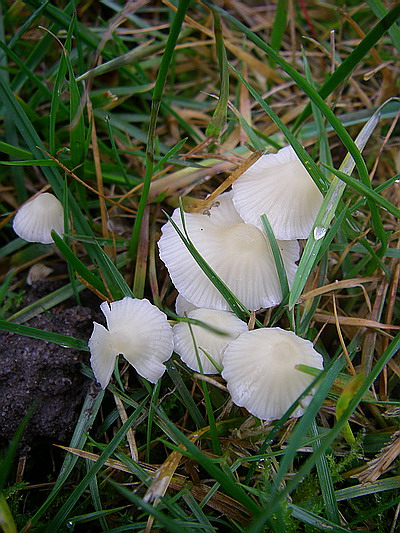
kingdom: Fungi
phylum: Basidiomycota
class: Agaricomycetes
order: Agaricales
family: Mycenaceae
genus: Atheniella
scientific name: Atheniella flavoalba
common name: gulhvid huesvamp
